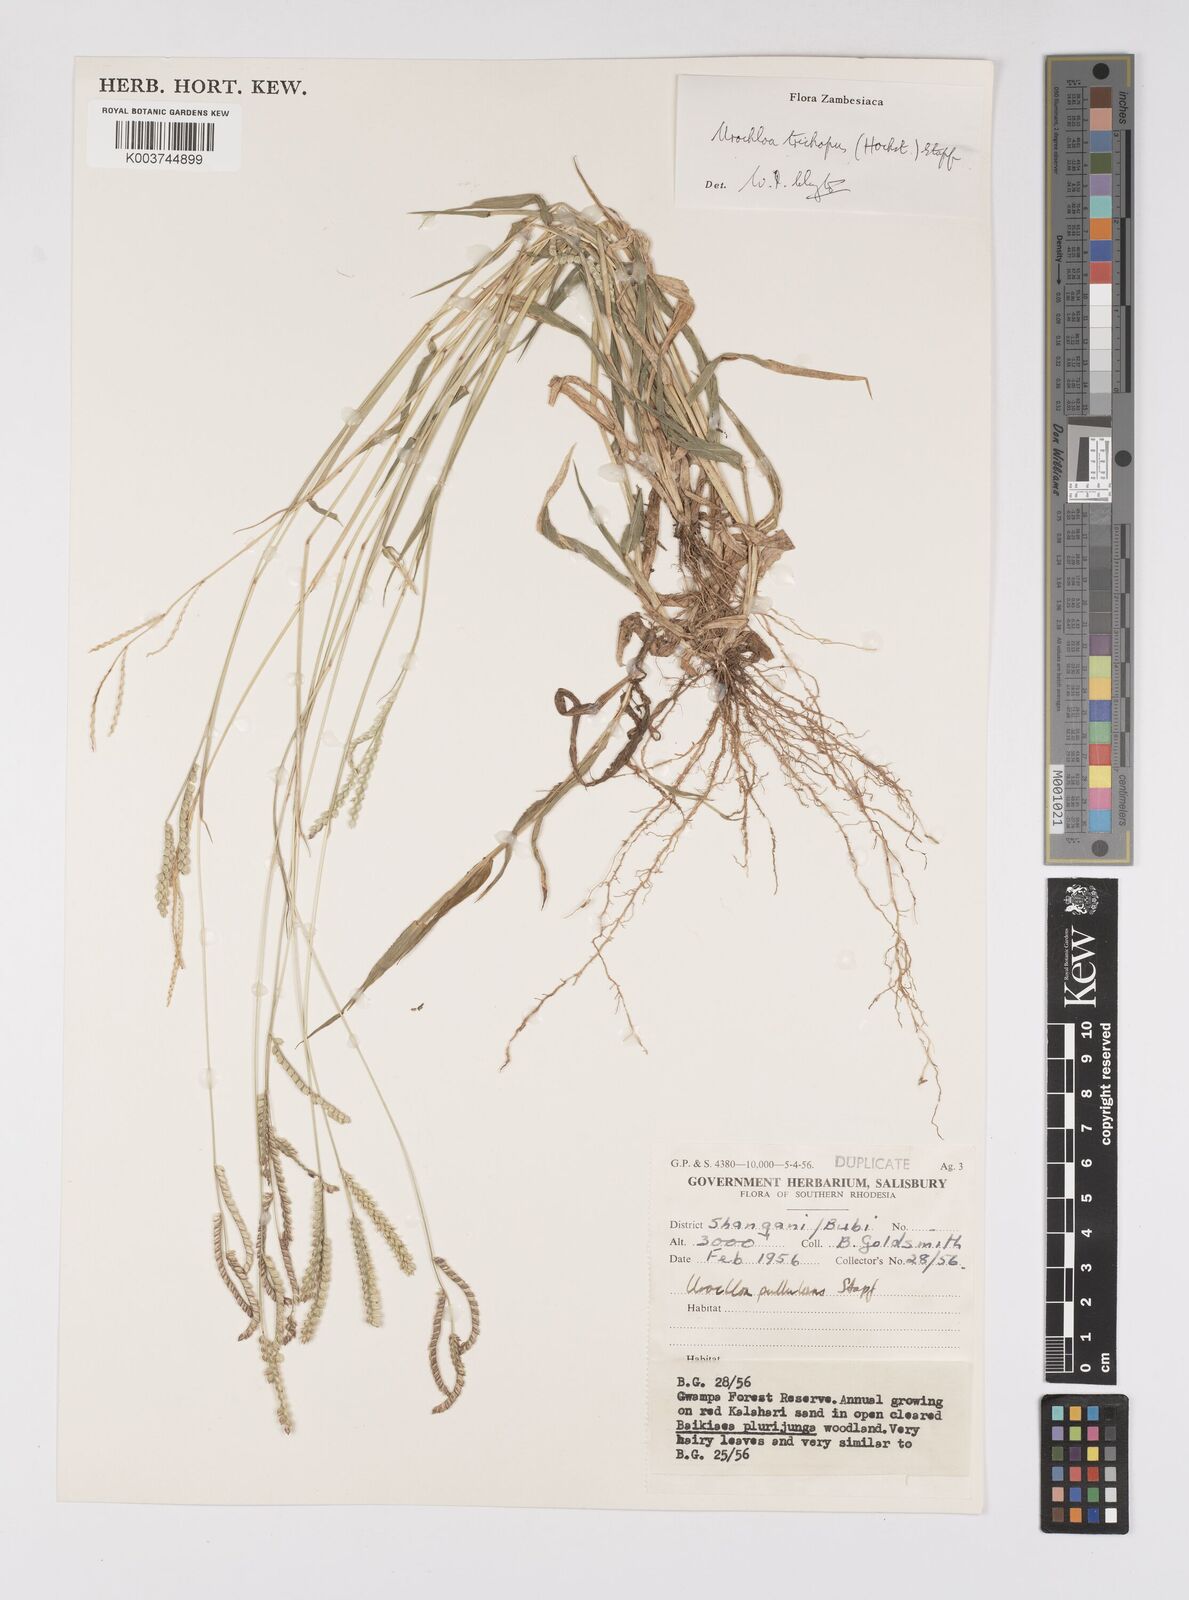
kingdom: Plantae
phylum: Tracheophyta
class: Liliopsida
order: Poales
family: Poaceae
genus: Urochloa
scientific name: Urochloa trichopus
